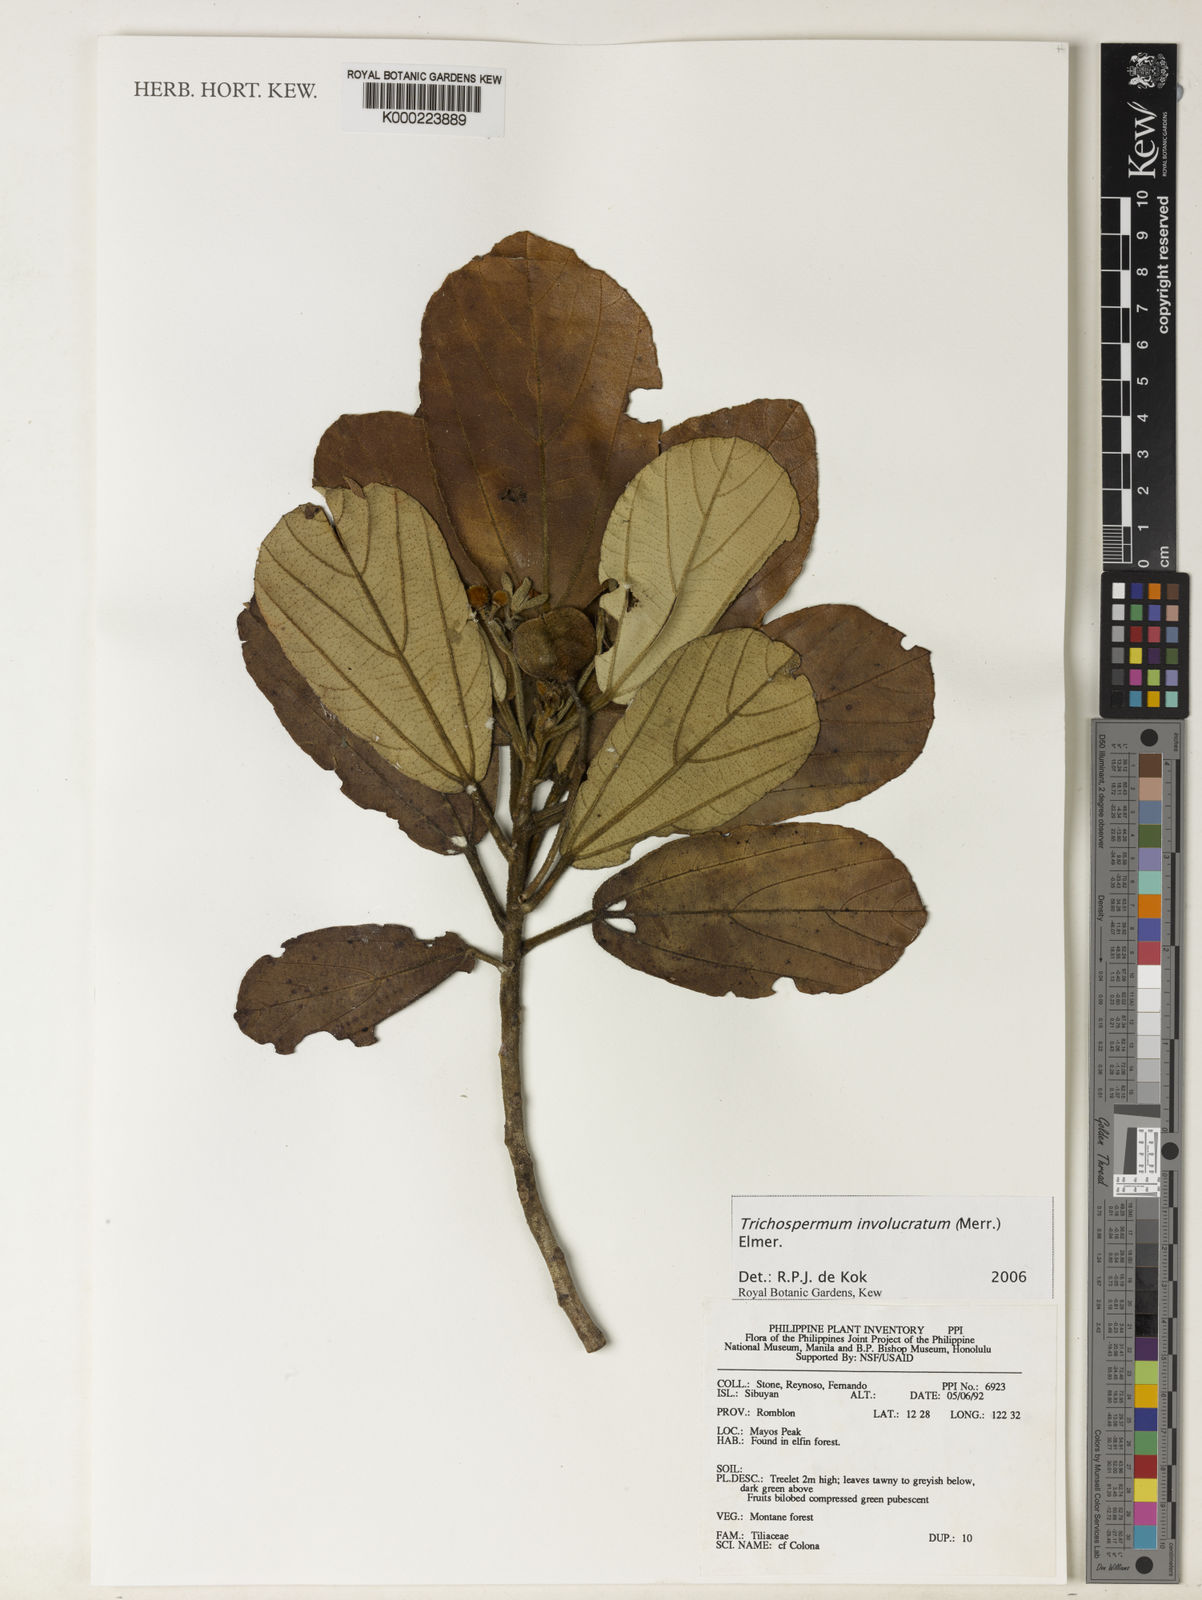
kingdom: Plantae
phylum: Tracheophyta
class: Magnoliopsida
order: Malvales
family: Malvaceae
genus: Trichospermum
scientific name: Trichospermum involucratum
